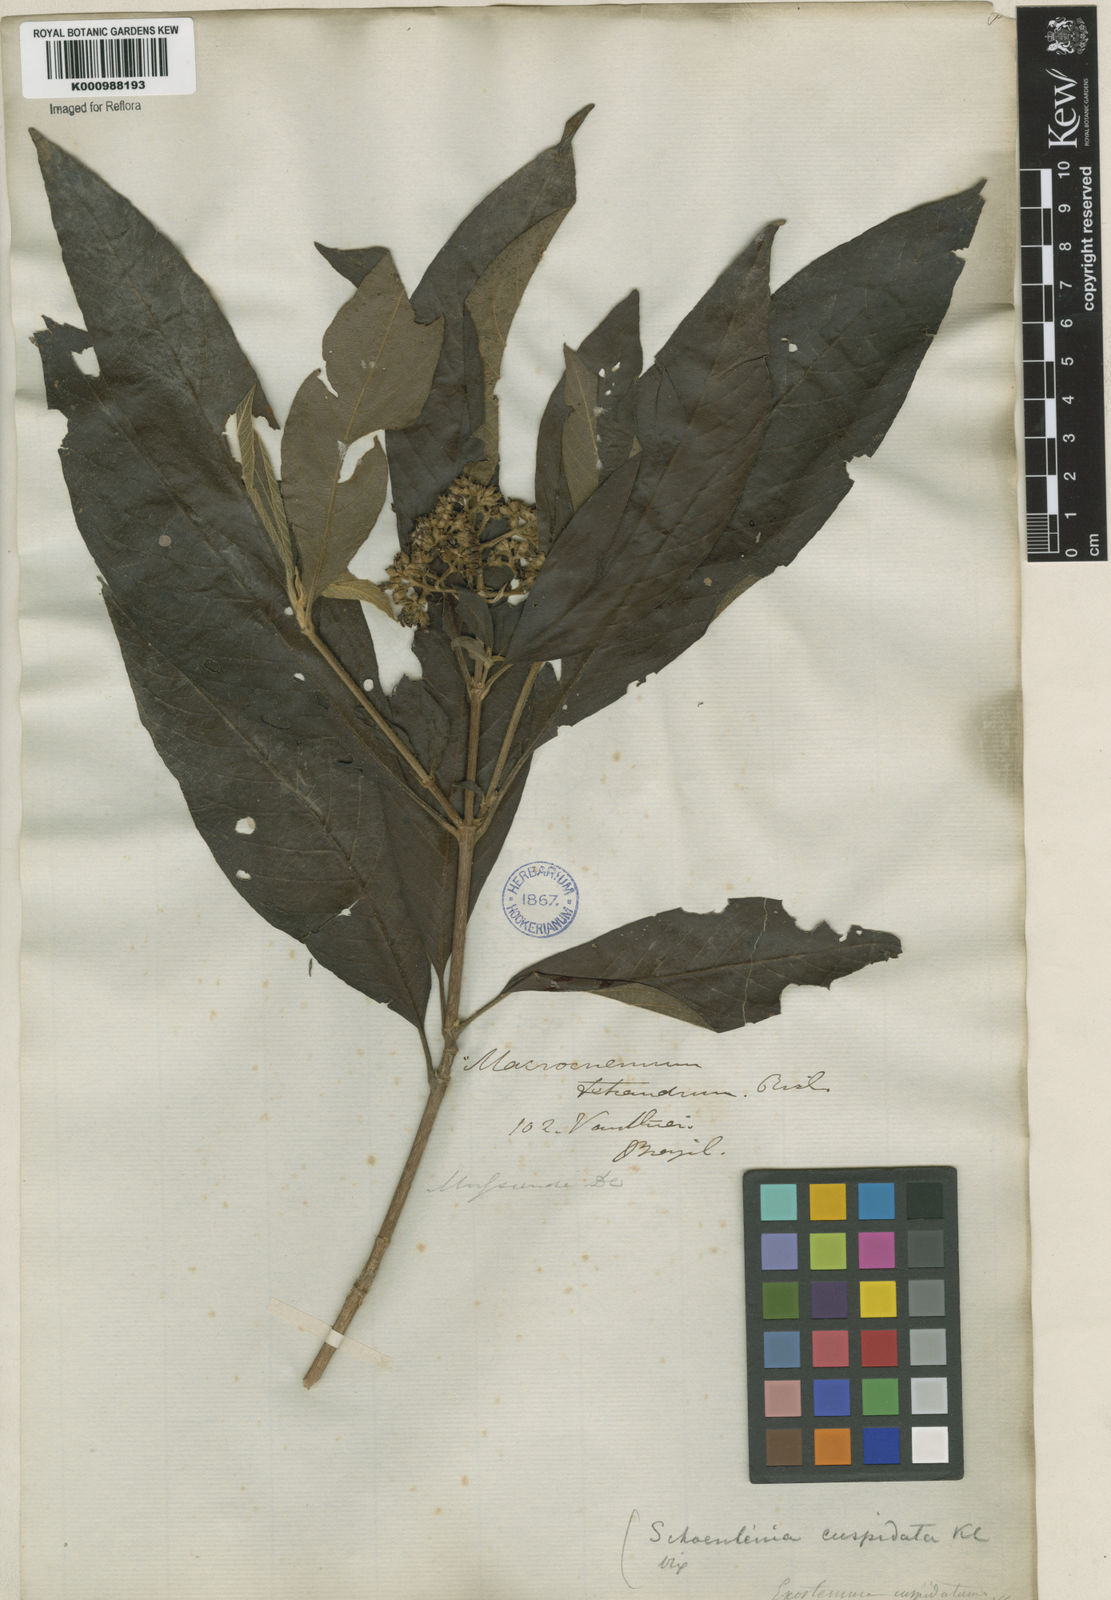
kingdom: Plantae
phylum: Tracheophyta
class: Magnoliopsida
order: Gentianales
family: Rubiaceae
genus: Bathysa
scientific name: Bathysa
